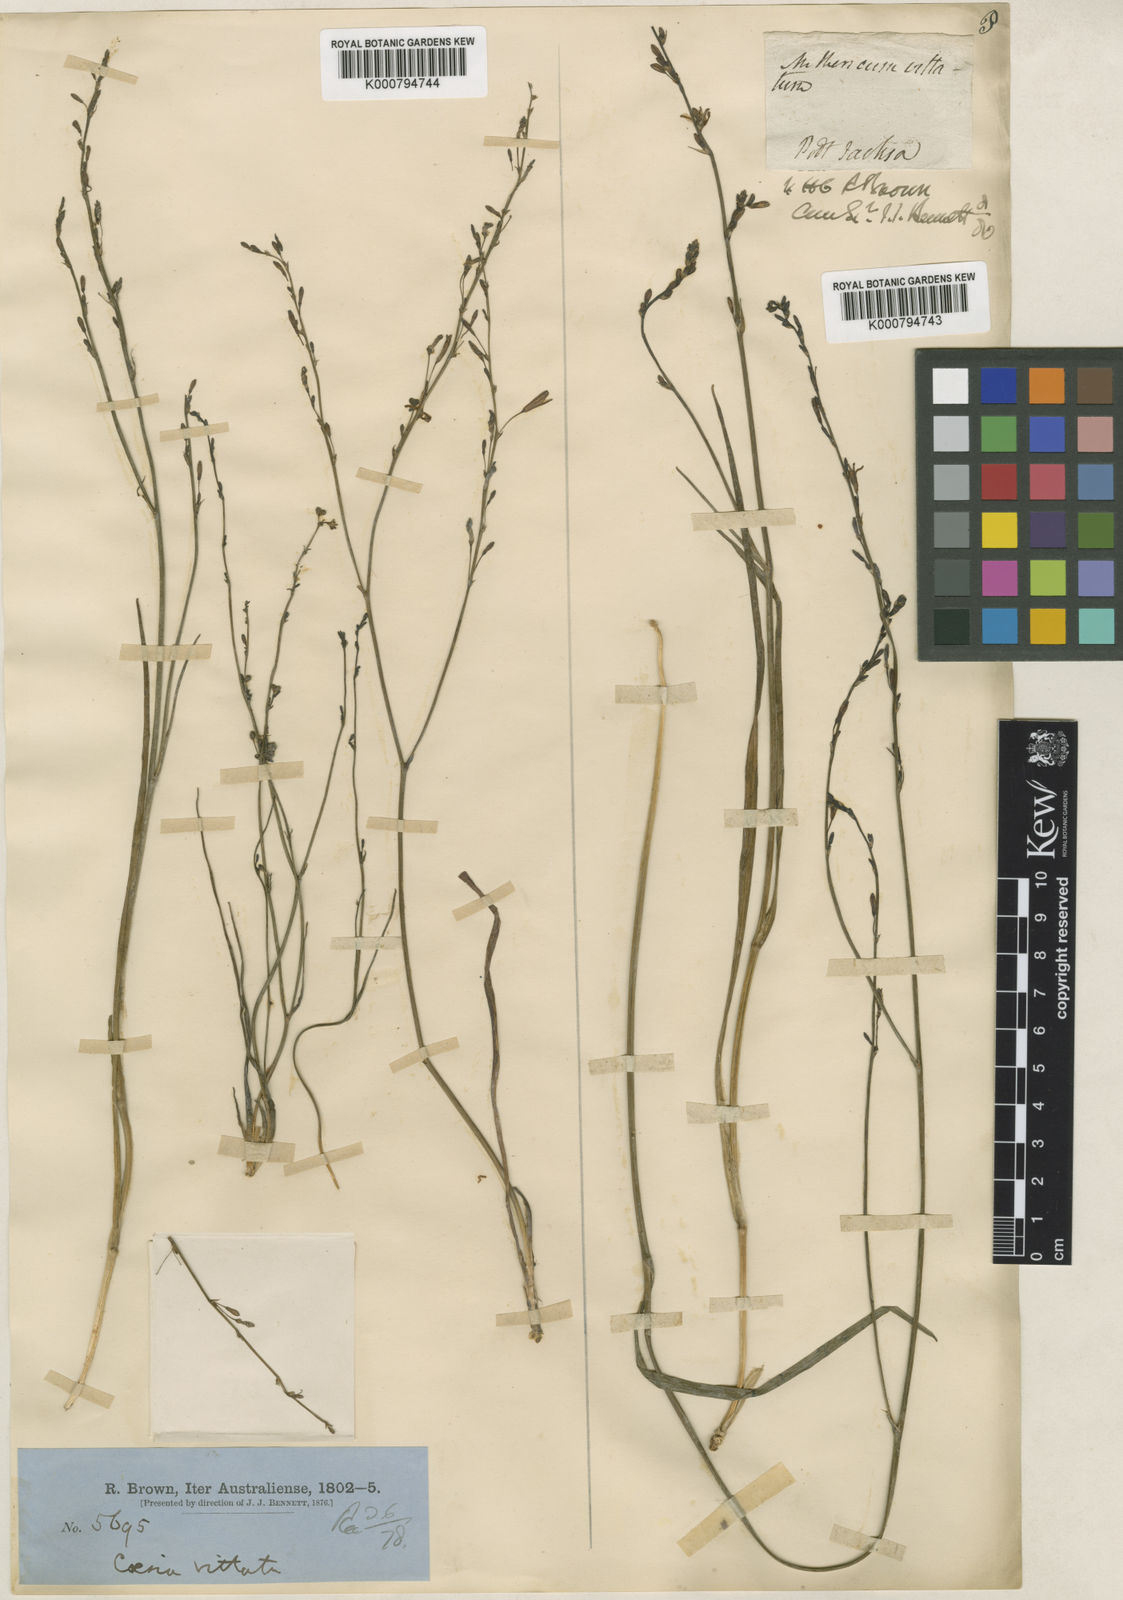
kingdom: Plantae
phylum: Tracheophyta
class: Liliopsida
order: Asparagales
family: Asphodelaceae
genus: Caesia
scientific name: Caesia parviflora
